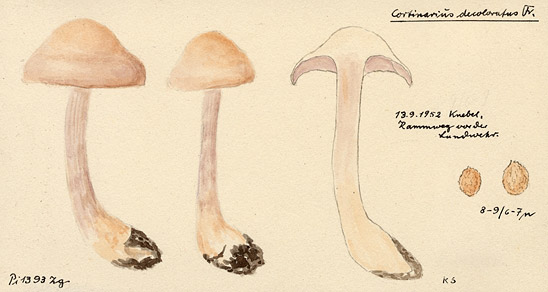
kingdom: Fungi
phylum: Basidiomycota
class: Agaricomycetes
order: Agaricales
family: Cortinariaceae
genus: Cortinarius
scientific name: Cortinarius tabularis
